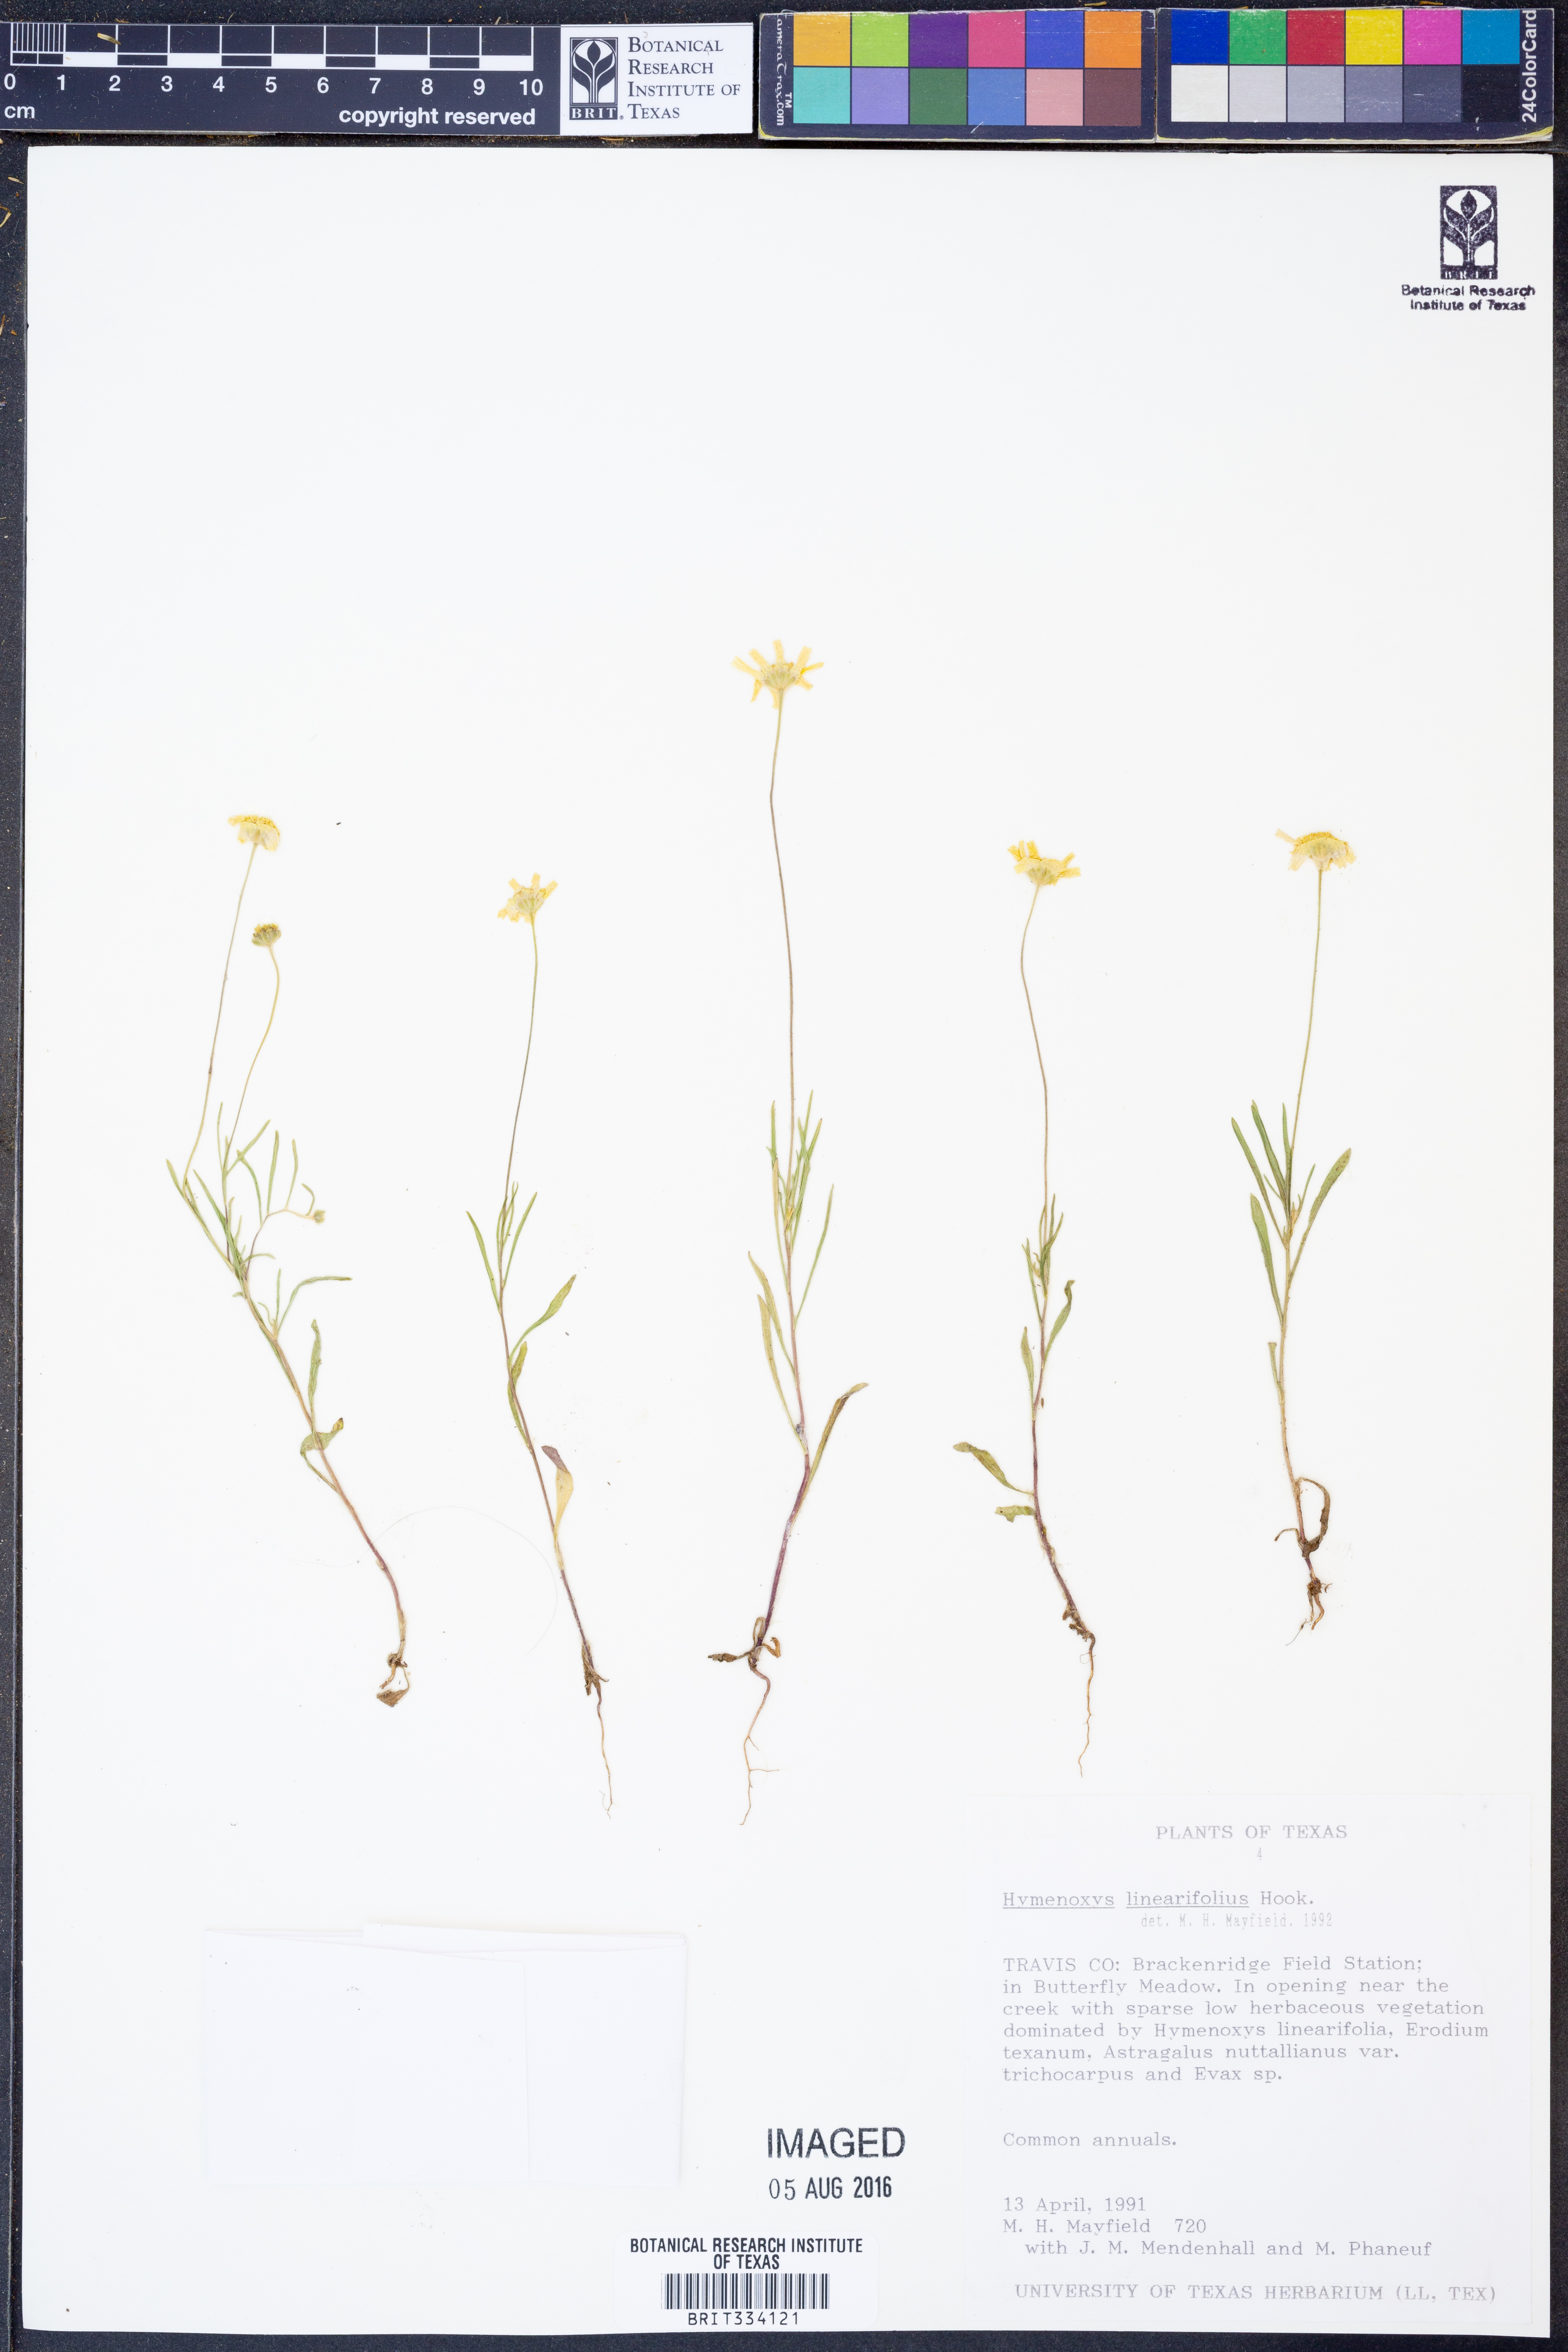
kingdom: Plantae
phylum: Tracheophyta
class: Magnoliopsida
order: Asterales
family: Asteraceae
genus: Tetraneuris
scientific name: Tetraneuris linearifolia
